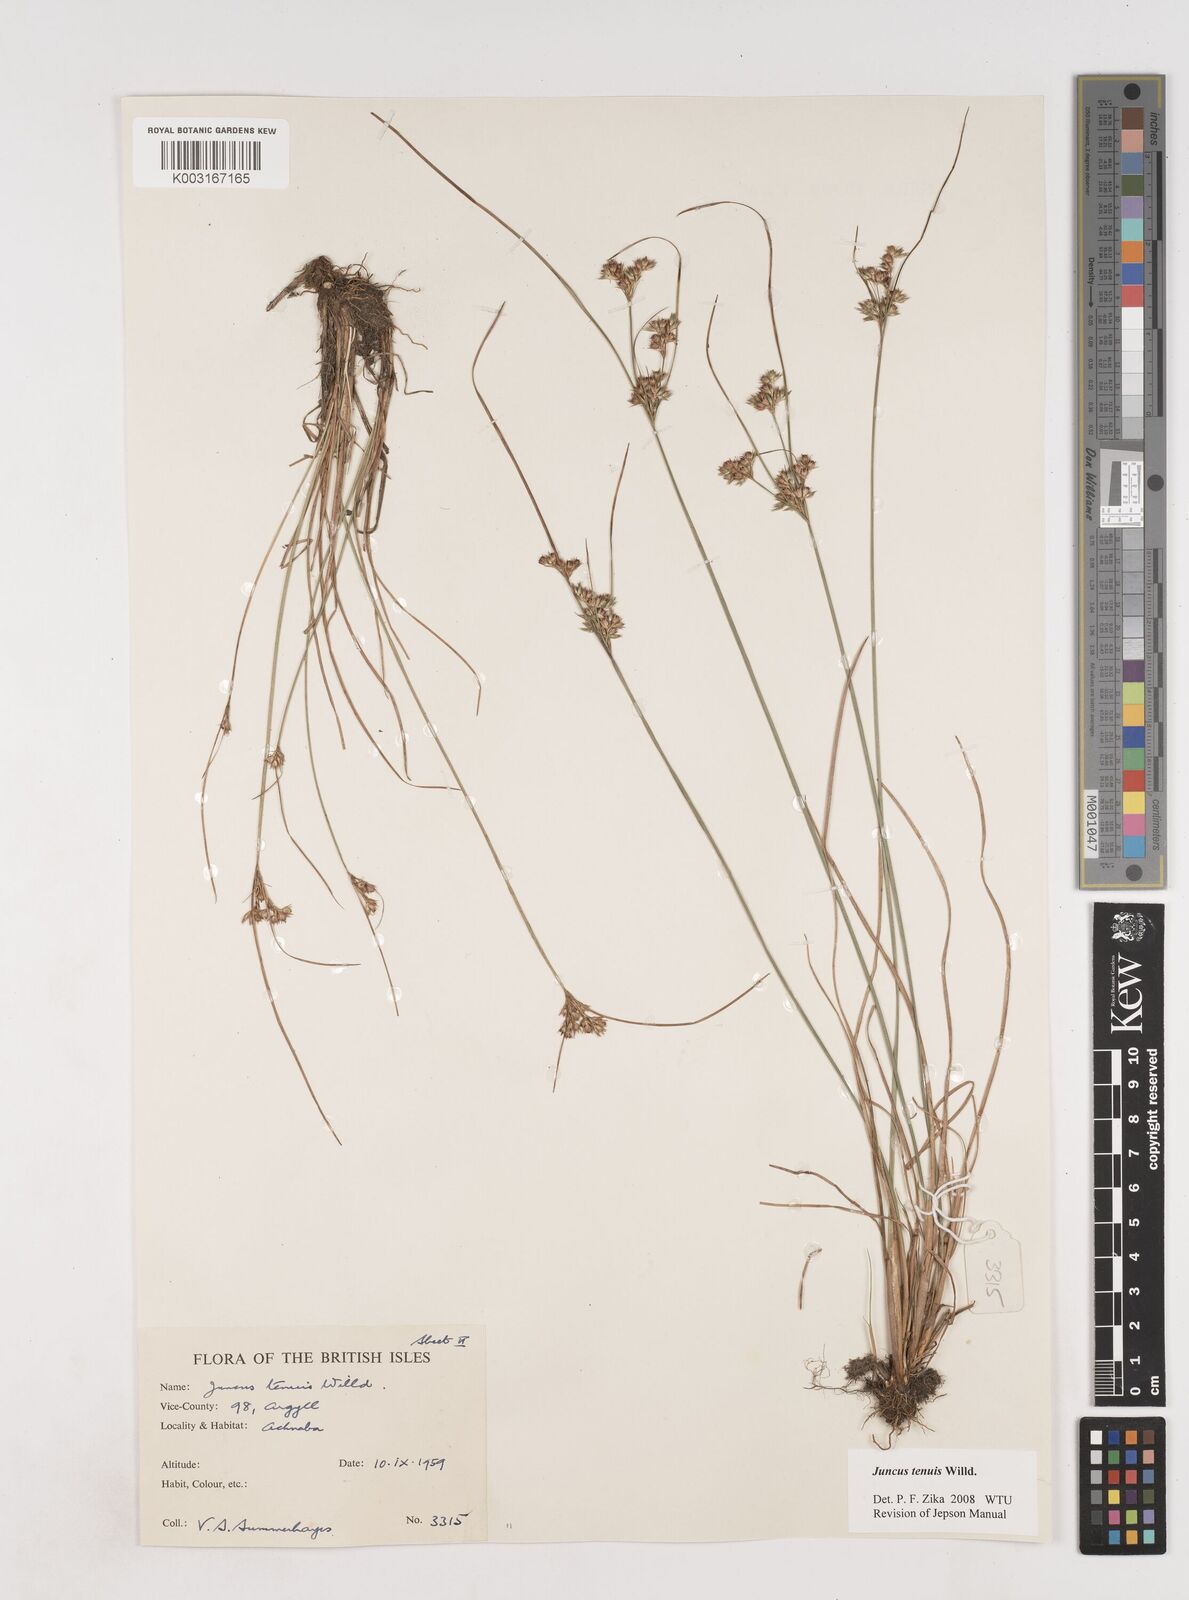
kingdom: Plantae
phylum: Tracheophyta
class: Liliopsida
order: Poales
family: Juncaceae
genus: Juncus
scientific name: Juncus tenuis
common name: Slender rush
